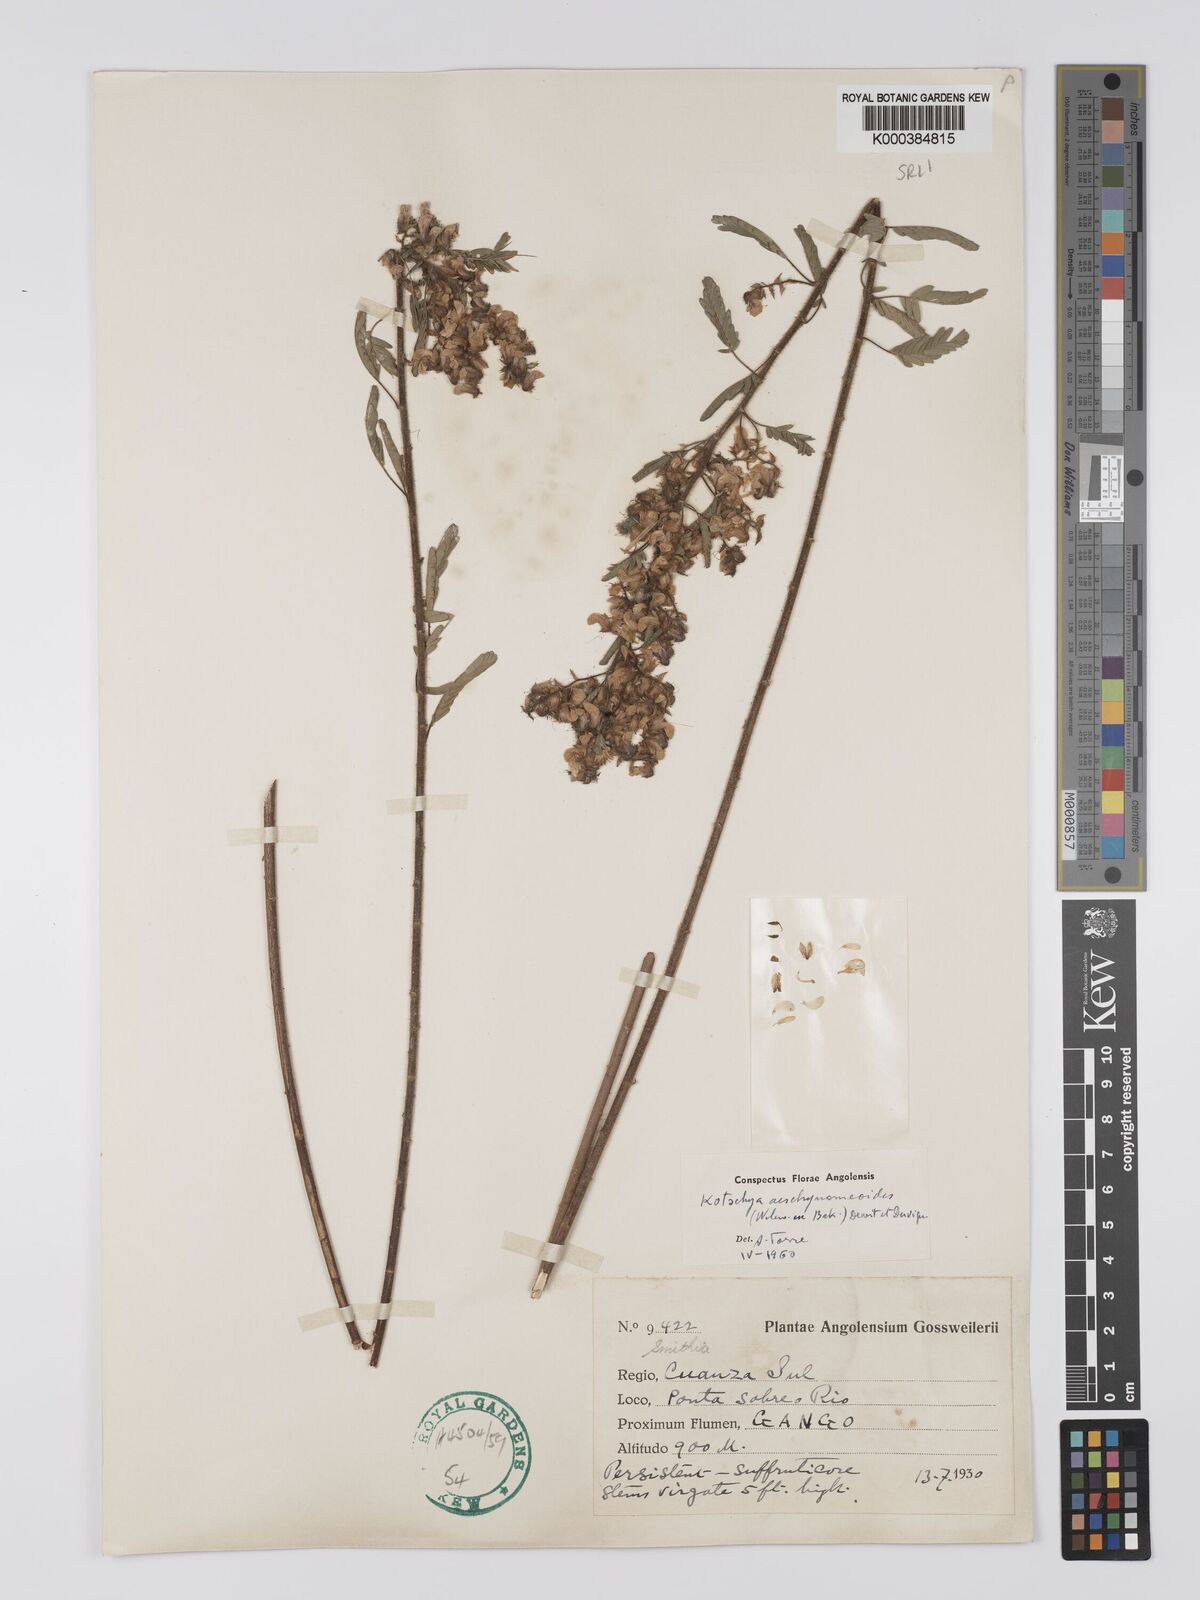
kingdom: Plantae
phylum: Tracheophyta
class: Magnoliopsida
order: Fabales
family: Fabaceae
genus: Kotschya
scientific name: Kotschya aeschynomenoides
